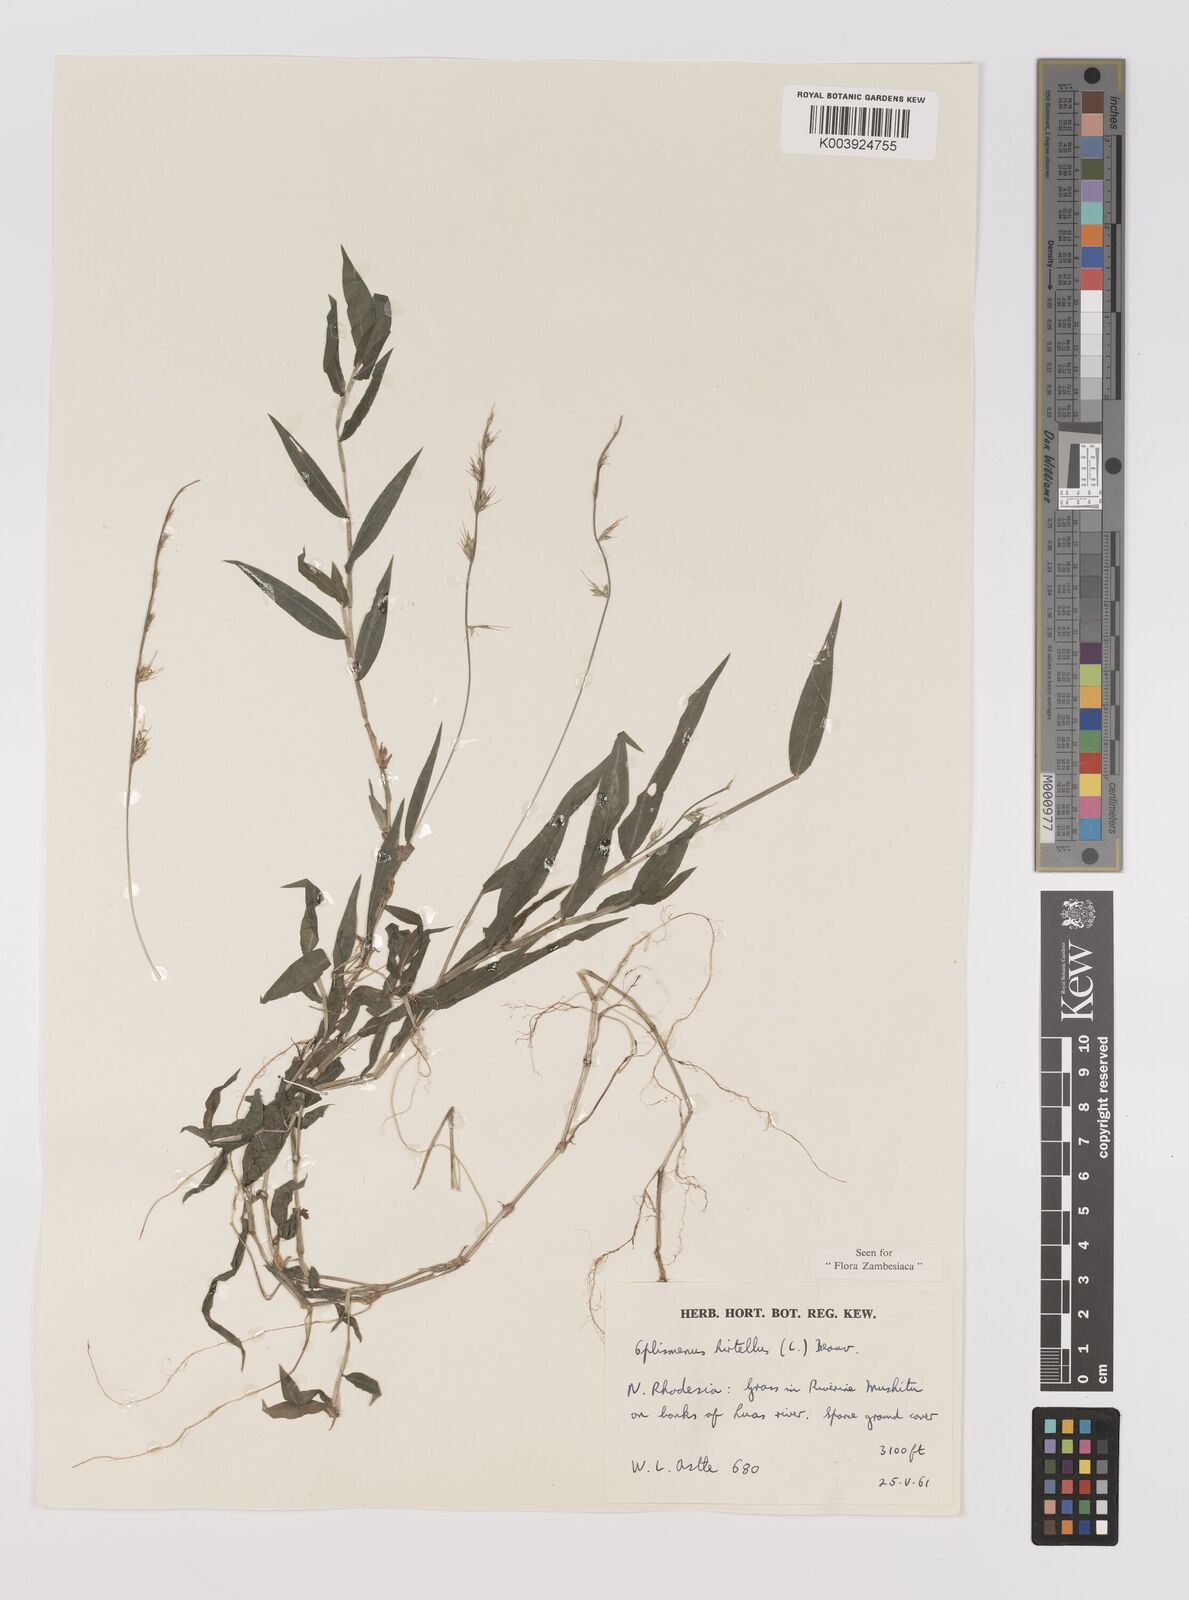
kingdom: Plantae
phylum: Tracheophyta
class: Liliopsida
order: Poales
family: Poaceae
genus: Oplismenus
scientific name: Oplismenus hirtellus
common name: Basketgrass
